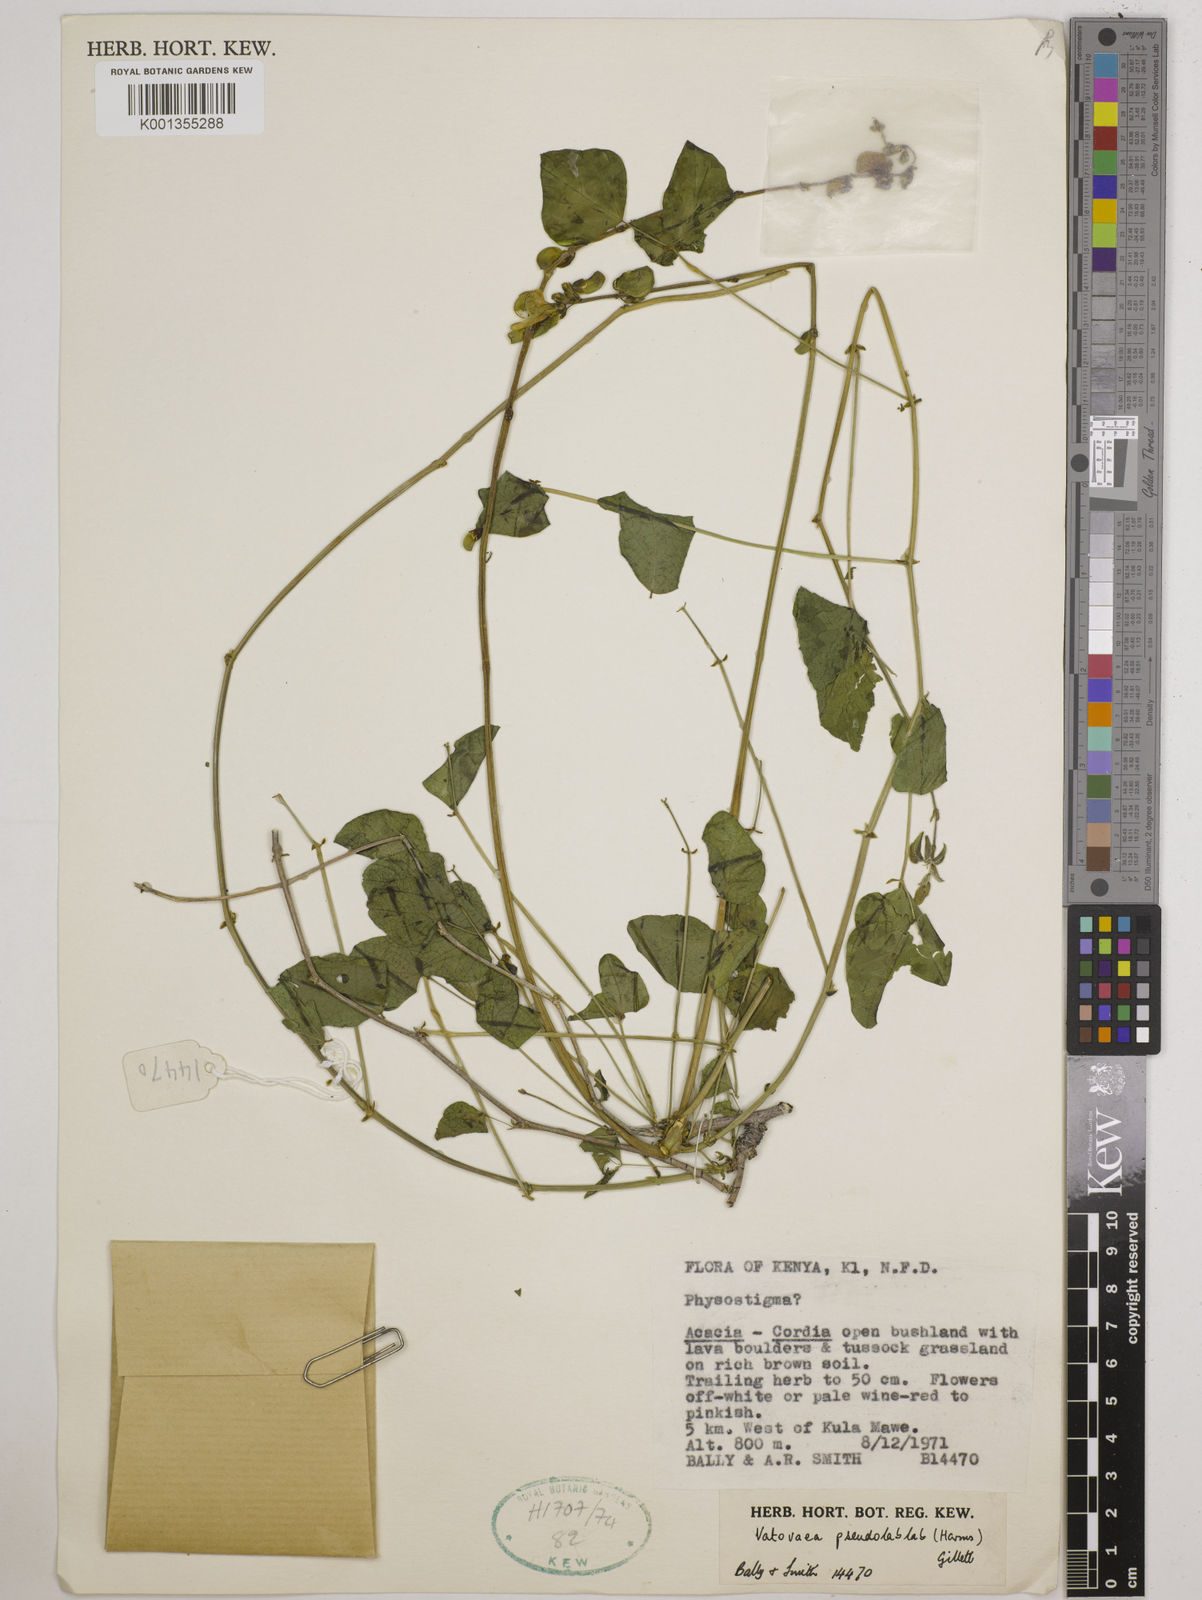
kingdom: Plantae
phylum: Tracheophyta
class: Magnoliopsida
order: Fabales
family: Fabaceae
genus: Vatovaea
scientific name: Vatovaea pseudolablab
